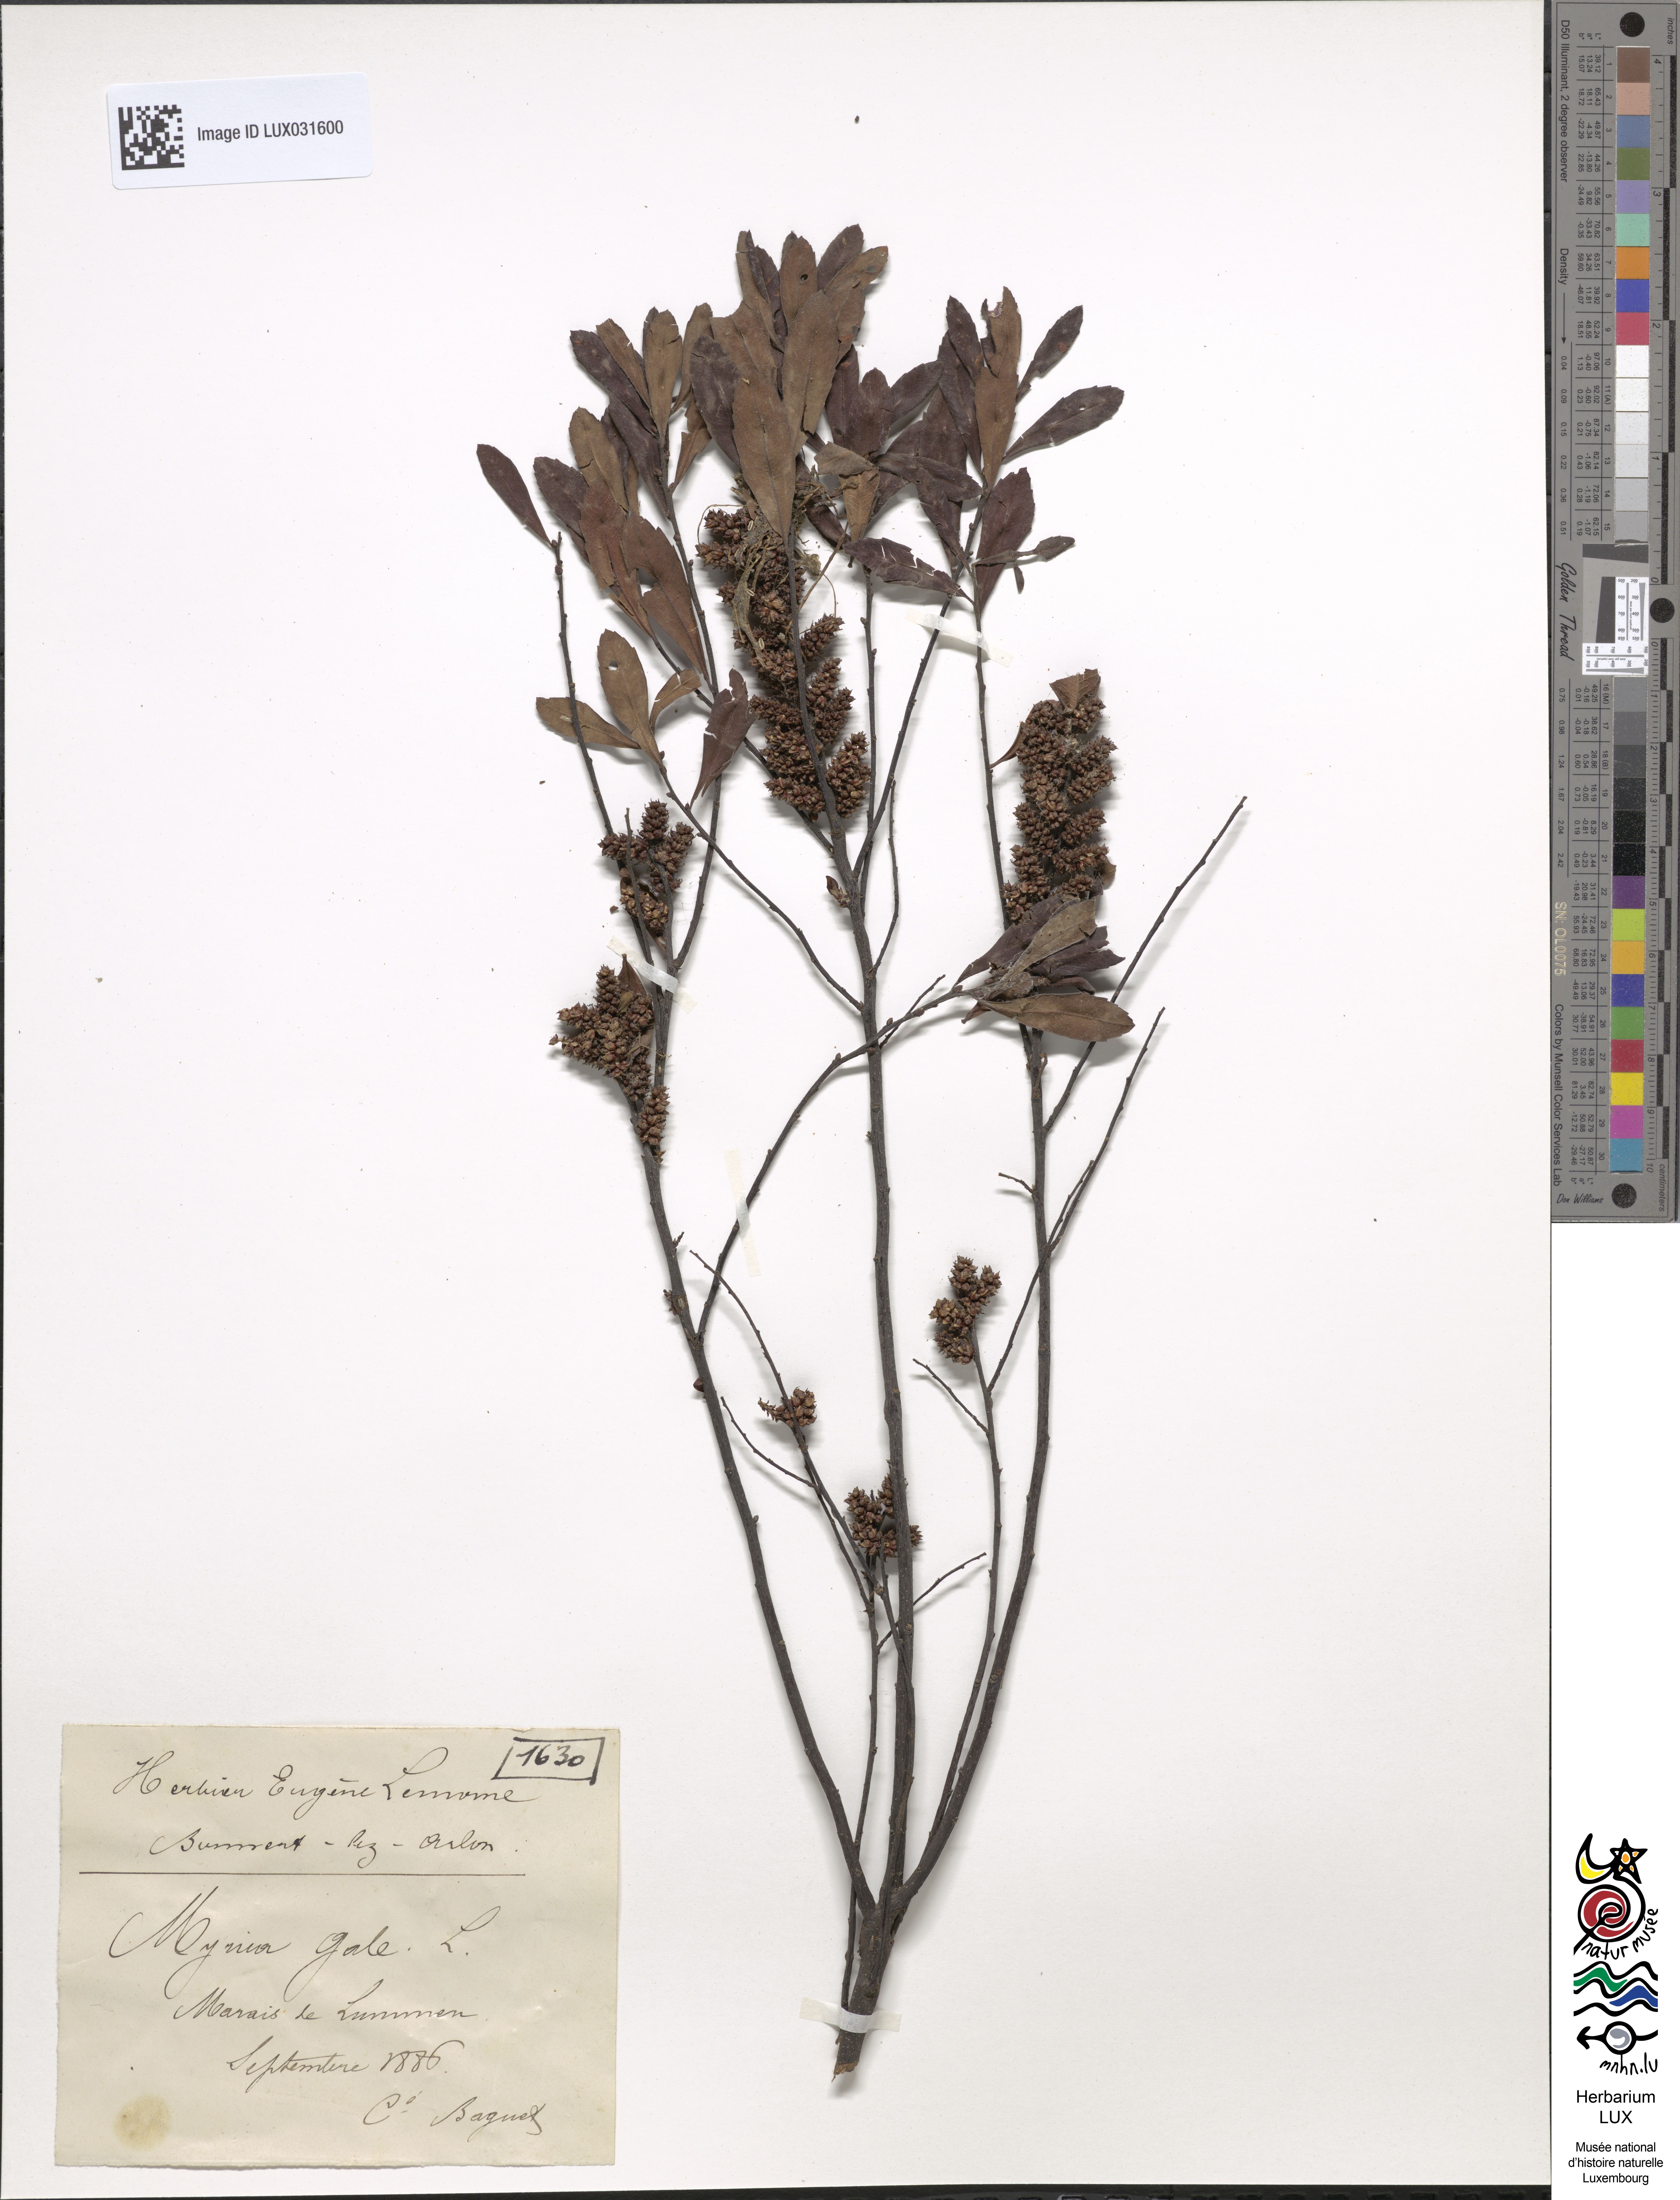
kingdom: Plantae
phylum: Tracheophyta
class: Magnoliopsida
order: Fagales
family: Myricaceae
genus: Myrica
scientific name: Myrica gale
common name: Sweet gale
